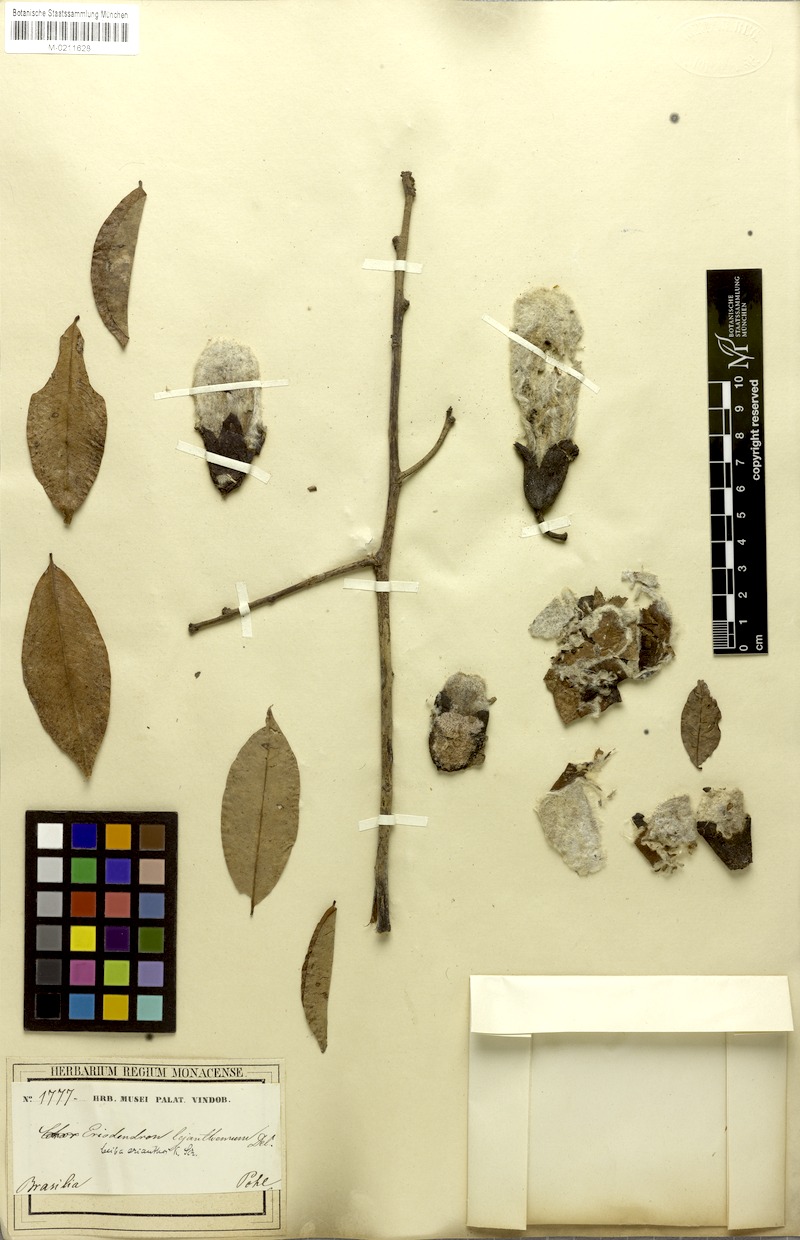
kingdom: Plantae
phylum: Tracheophyta
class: Magnoliopsida
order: Malvales
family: Malvaceae
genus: Ceiba
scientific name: Ceiba erianthos
